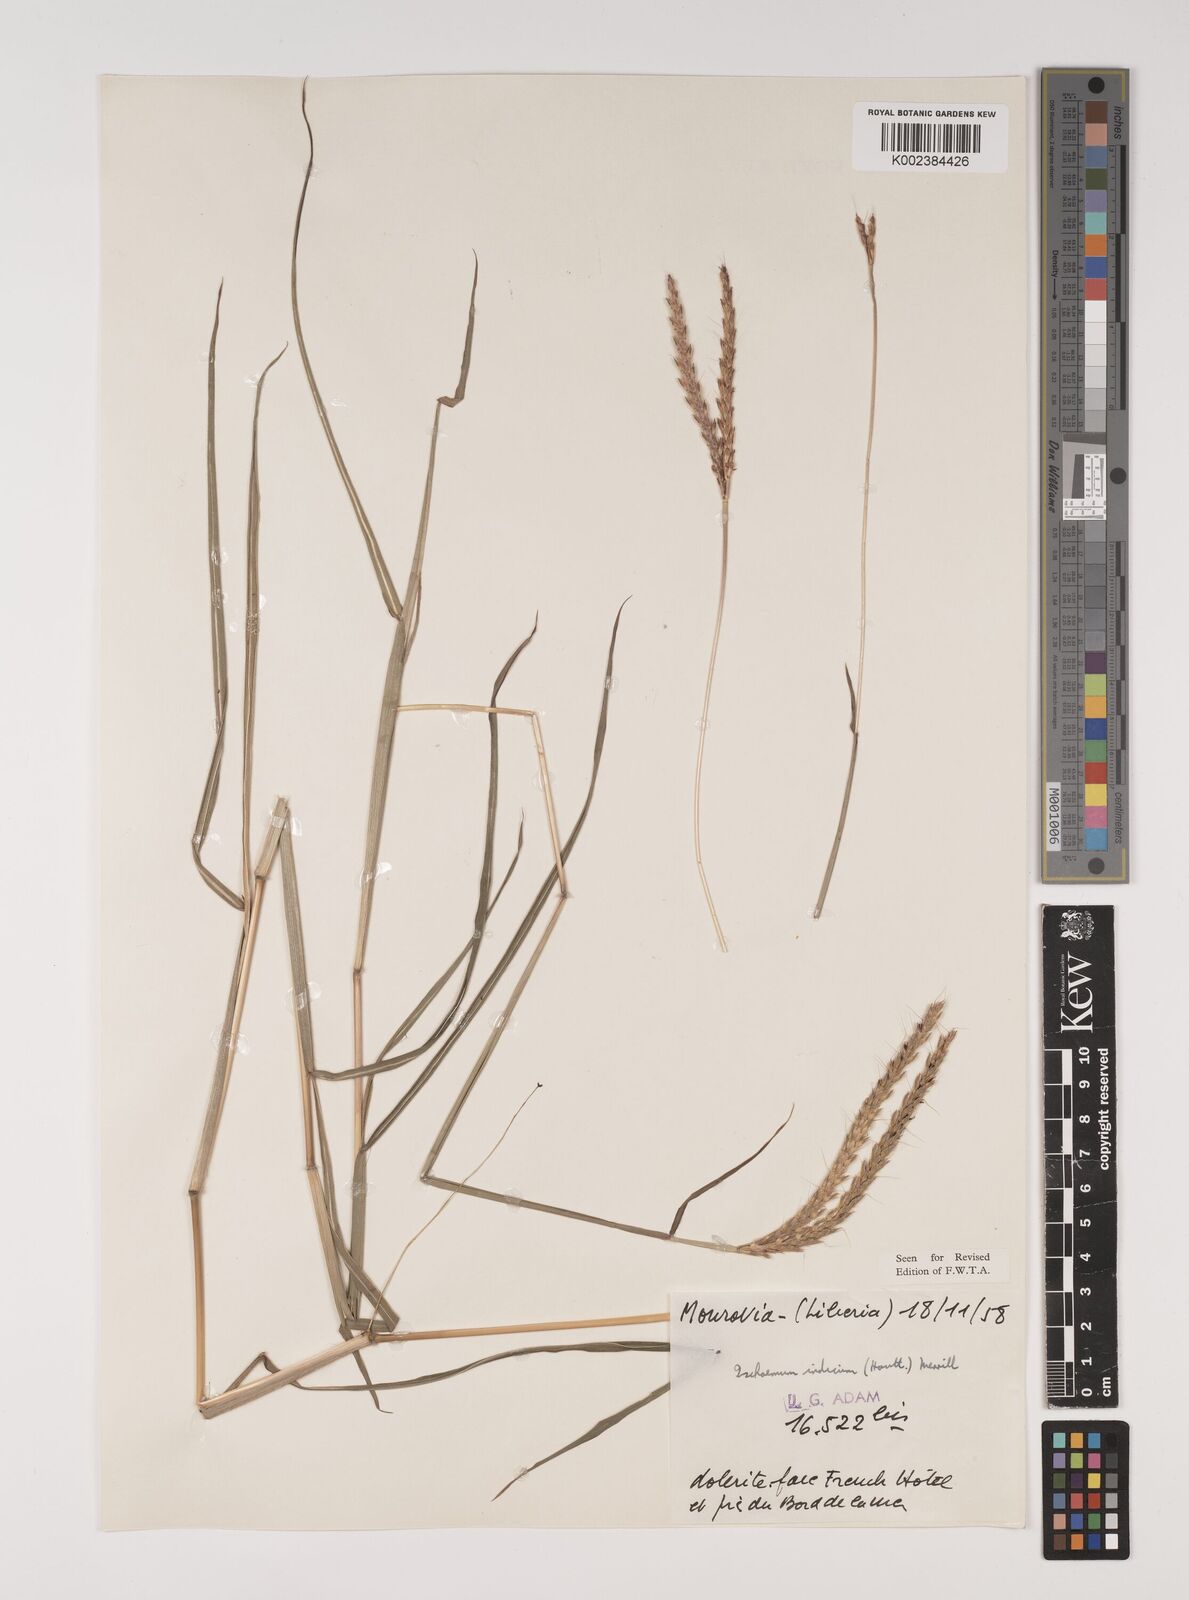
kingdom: Plantae
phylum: Tracheophyta
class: Liliopsida
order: Poales
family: Poaceae
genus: Polytrias
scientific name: Polytrias indica
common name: Indian murainagrass
